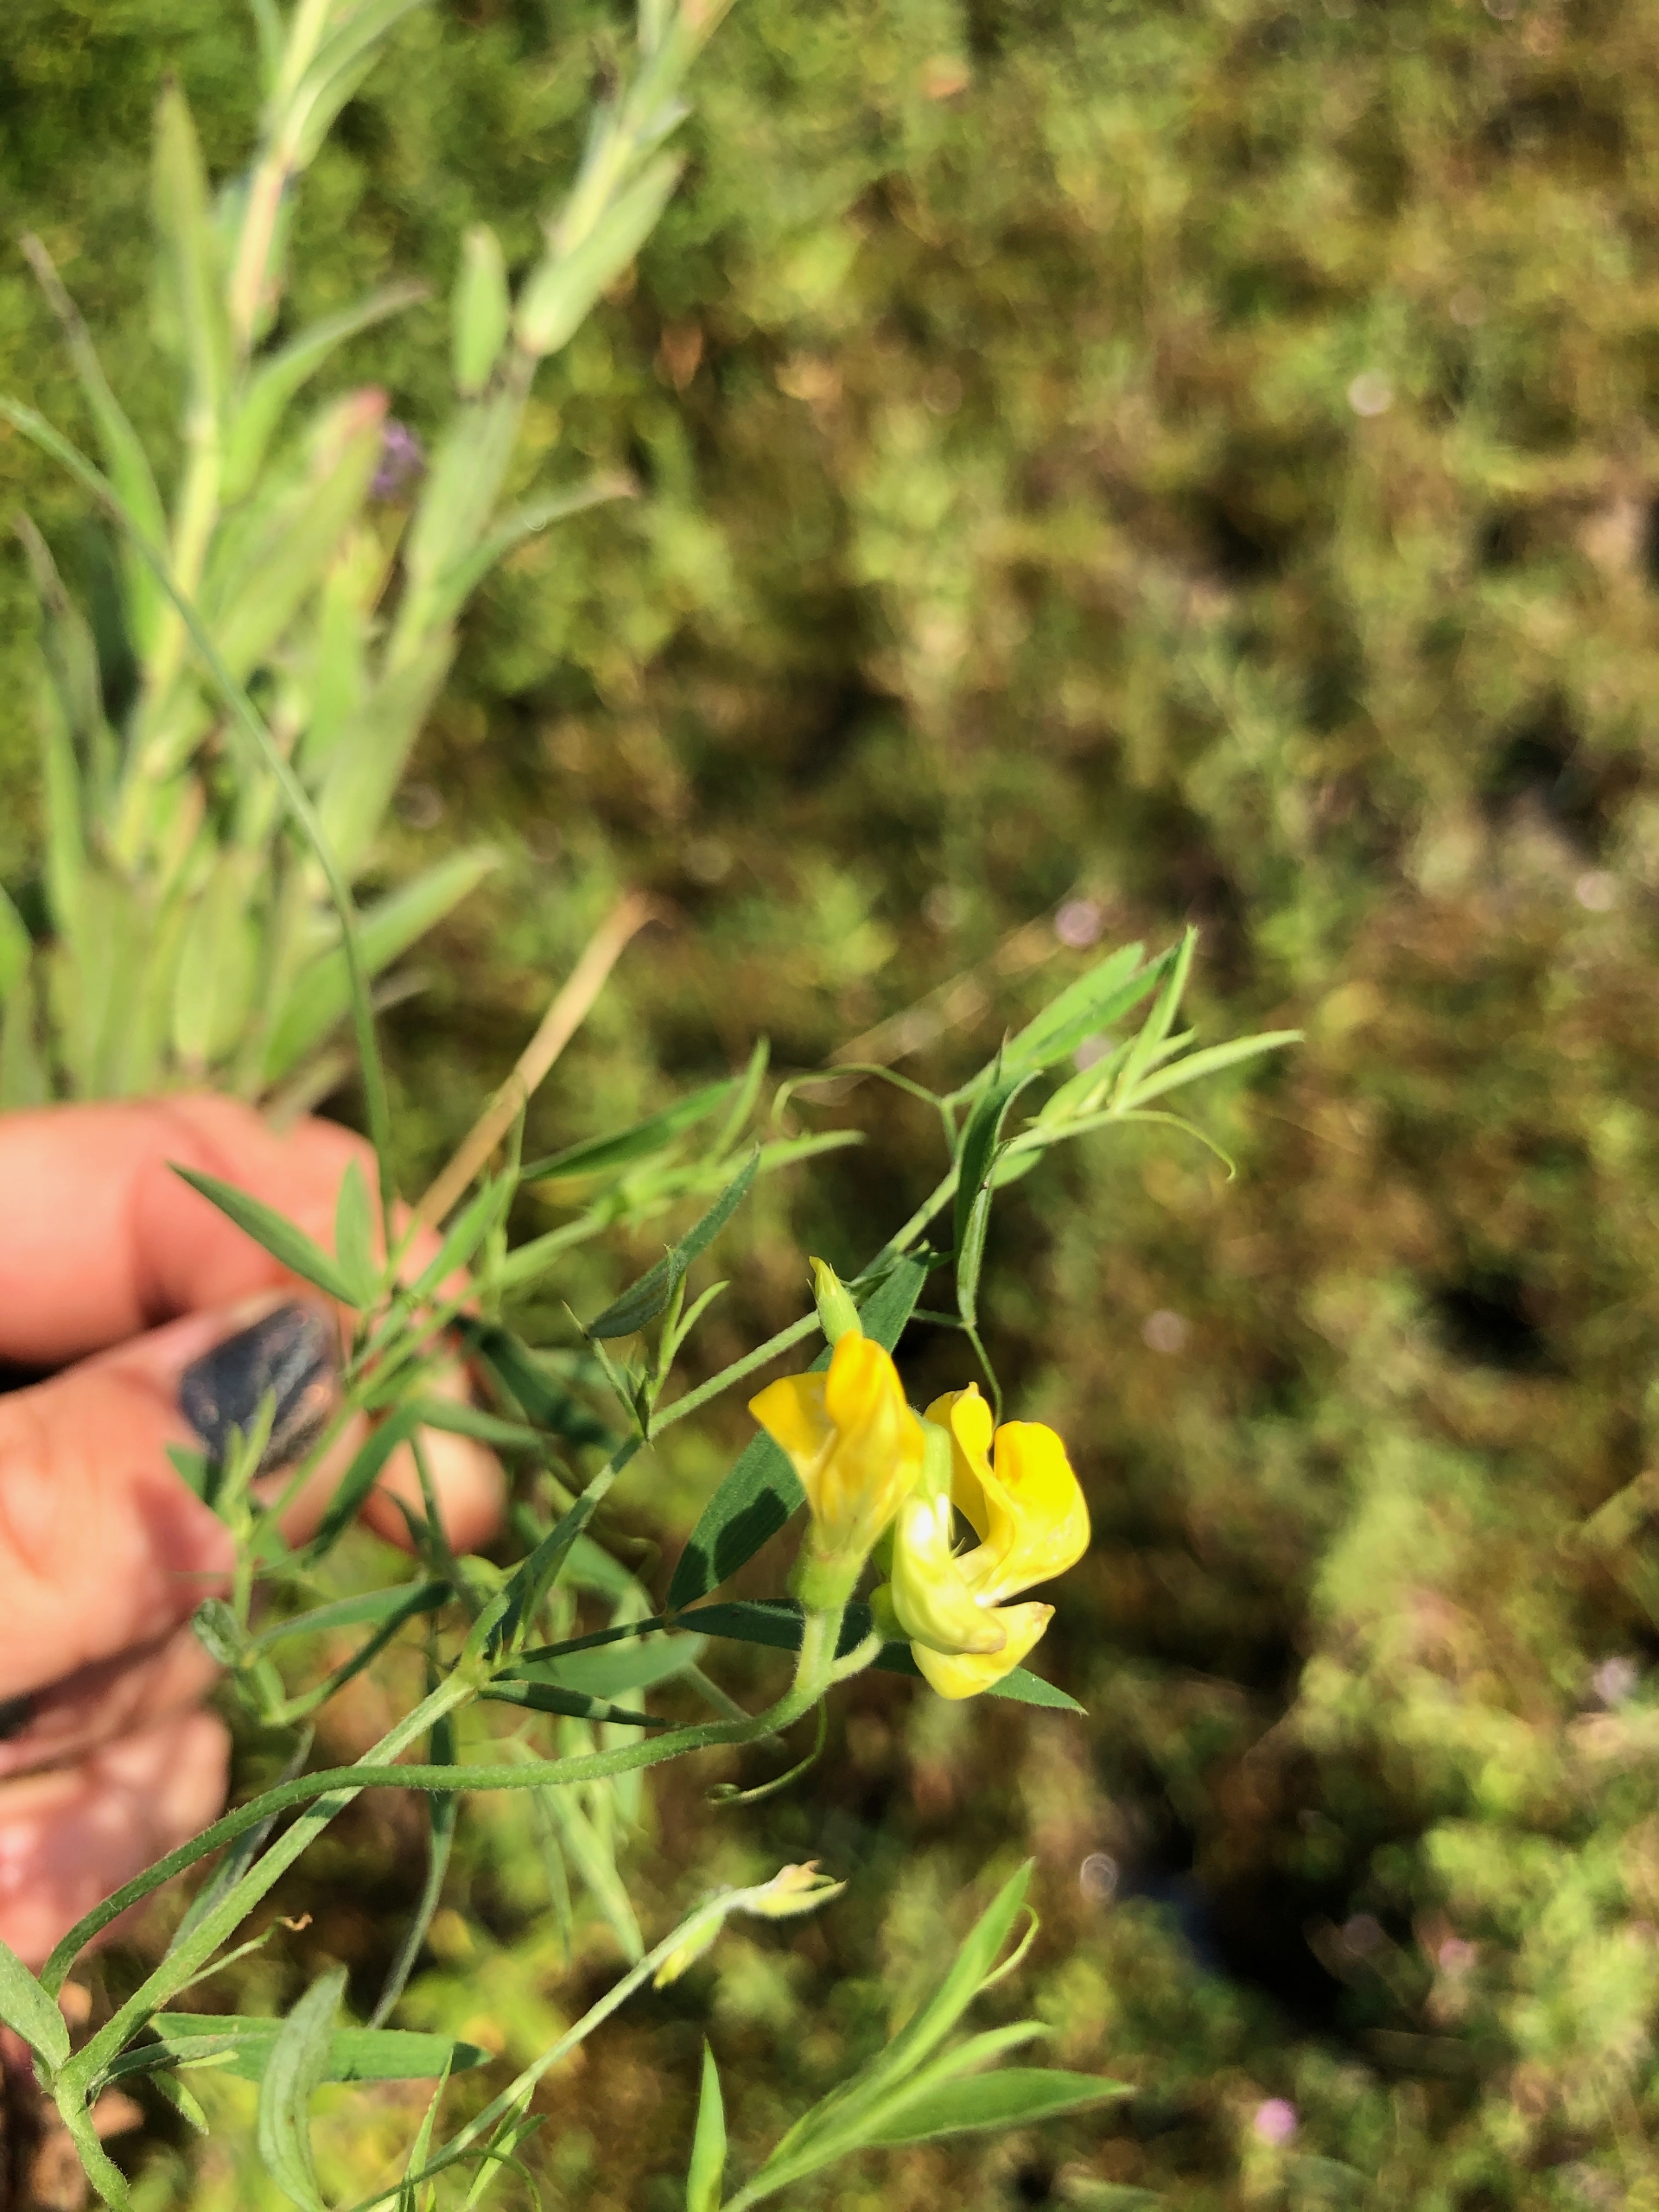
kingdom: Plantae
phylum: Tracheophyta
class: Magnoliopsida
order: Fabales
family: Fabaceae
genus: Lathyrus
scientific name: Lathyrus pratensis
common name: Gul fladbælg
